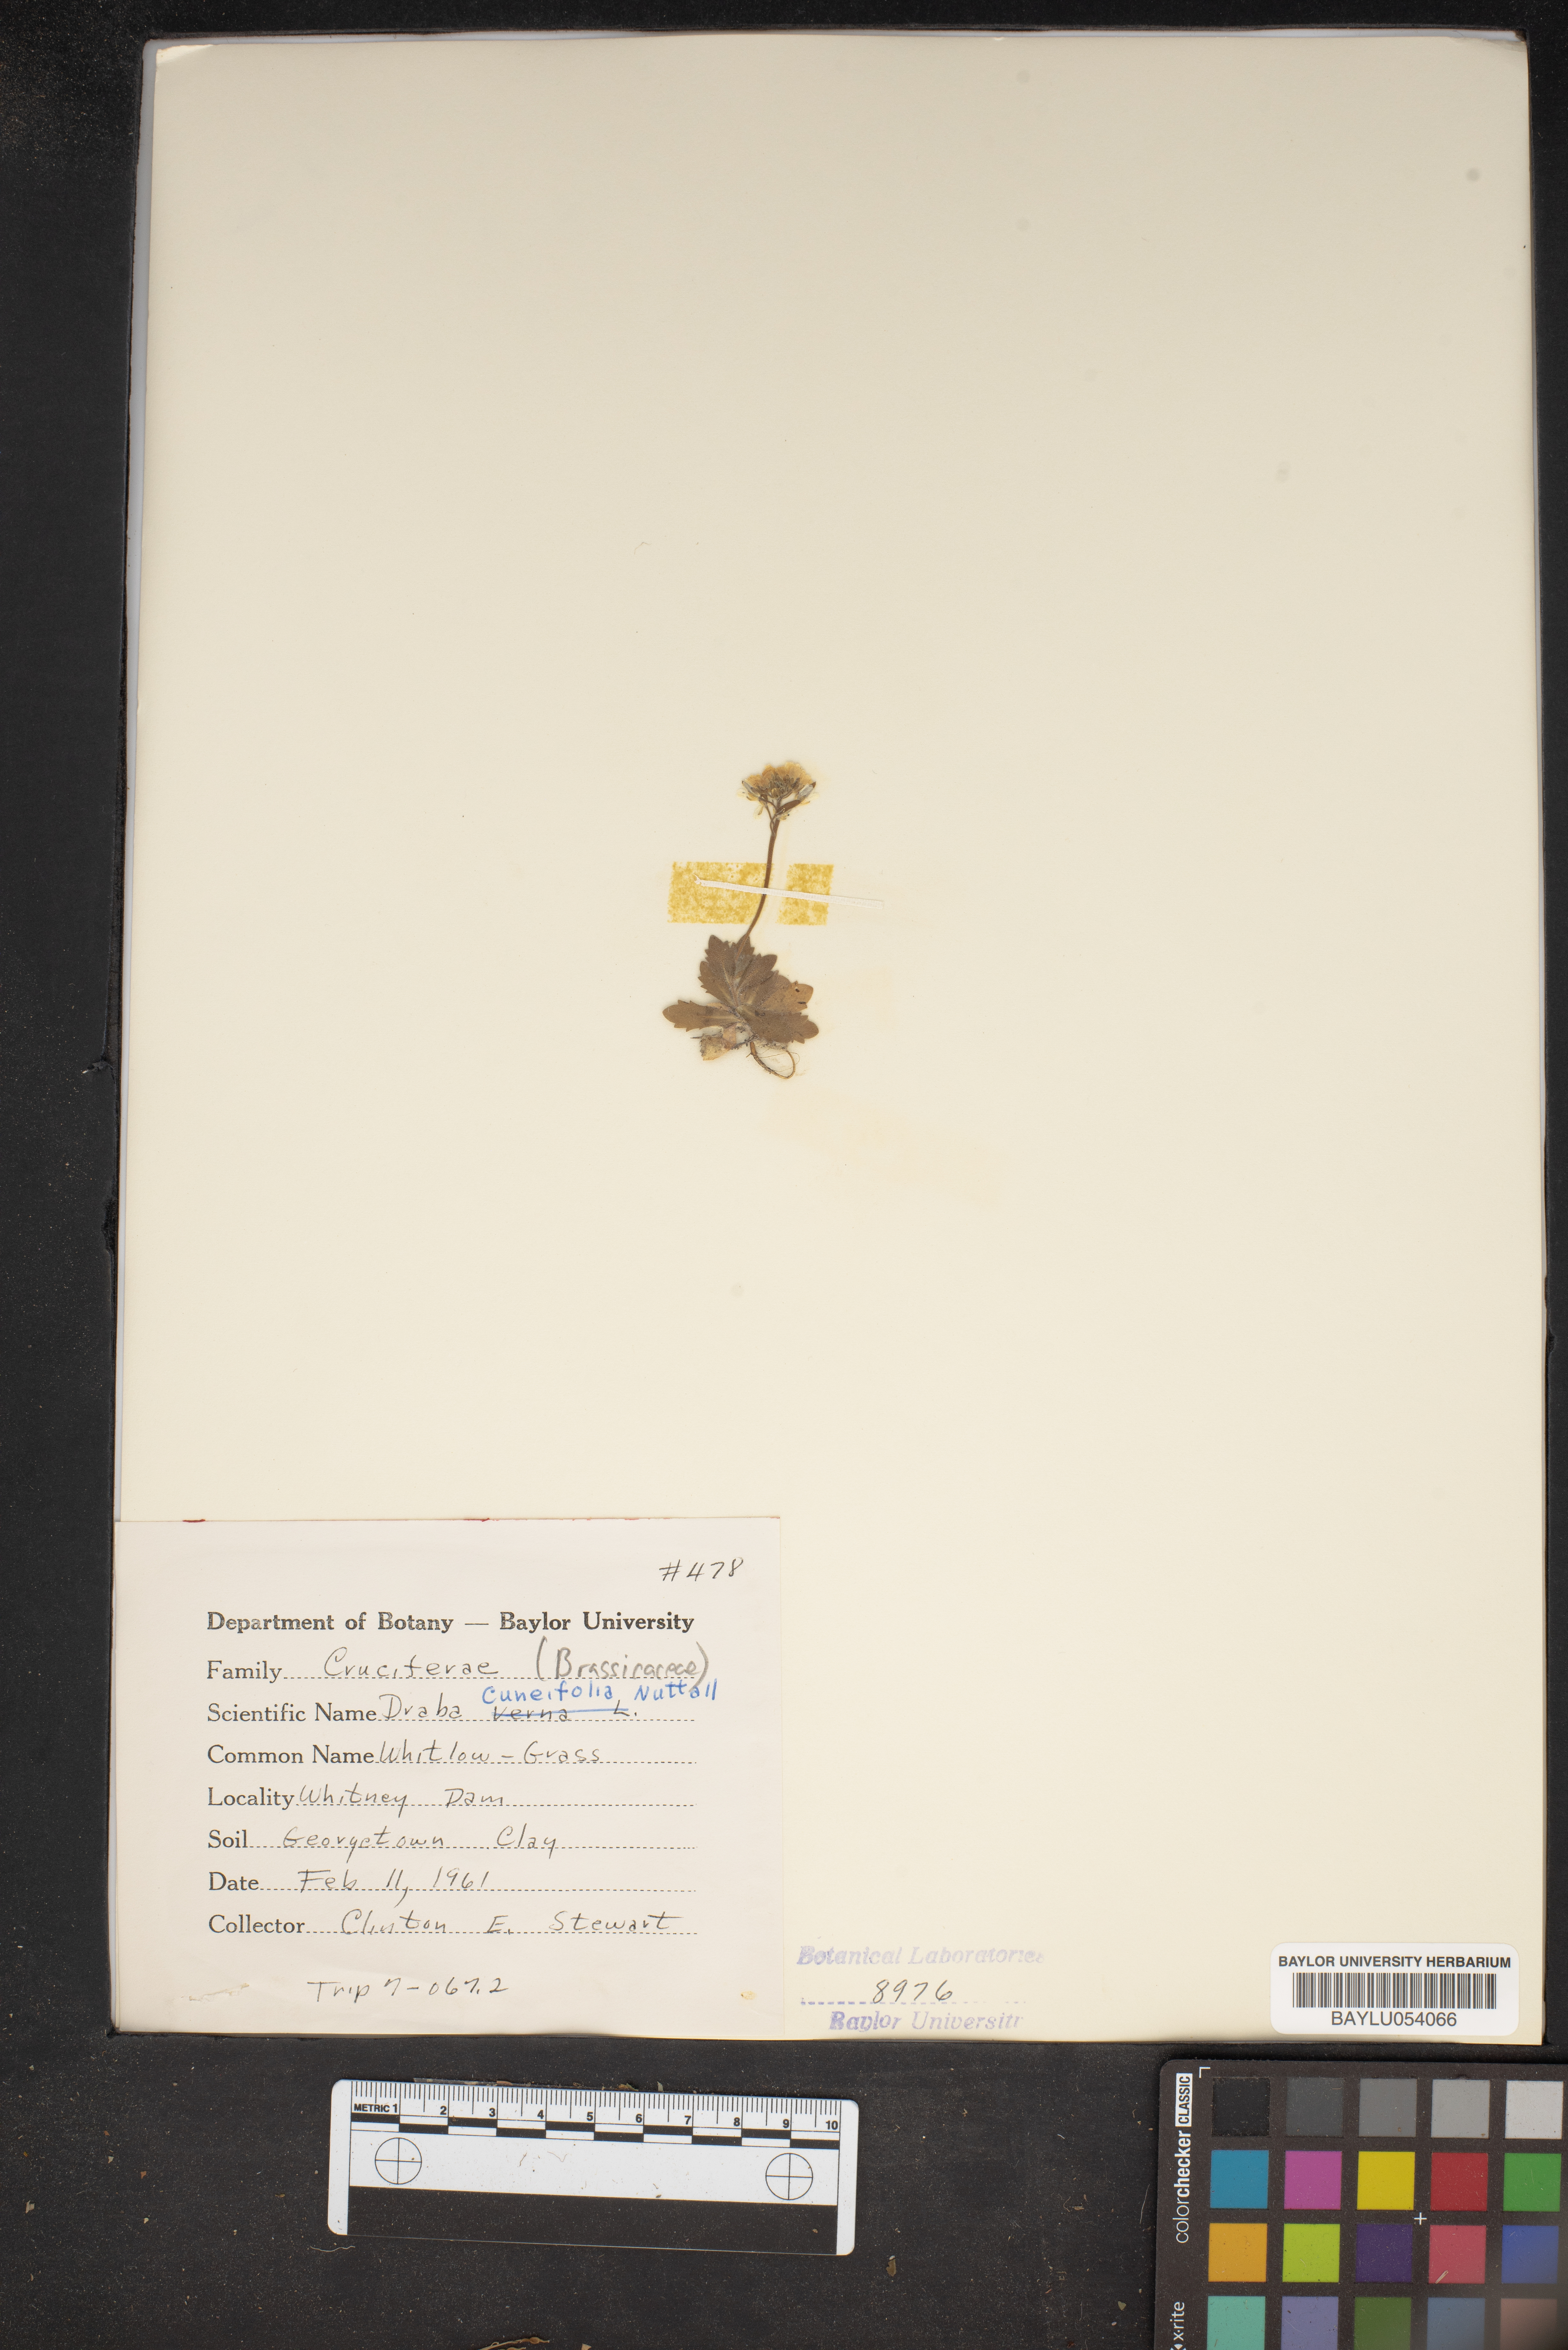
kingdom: Plantae
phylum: Tracheophyta
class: Magnoliopsida
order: Brassicales
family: Brassicaceae
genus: Tomostima
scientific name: Tomostima cuneifolia
